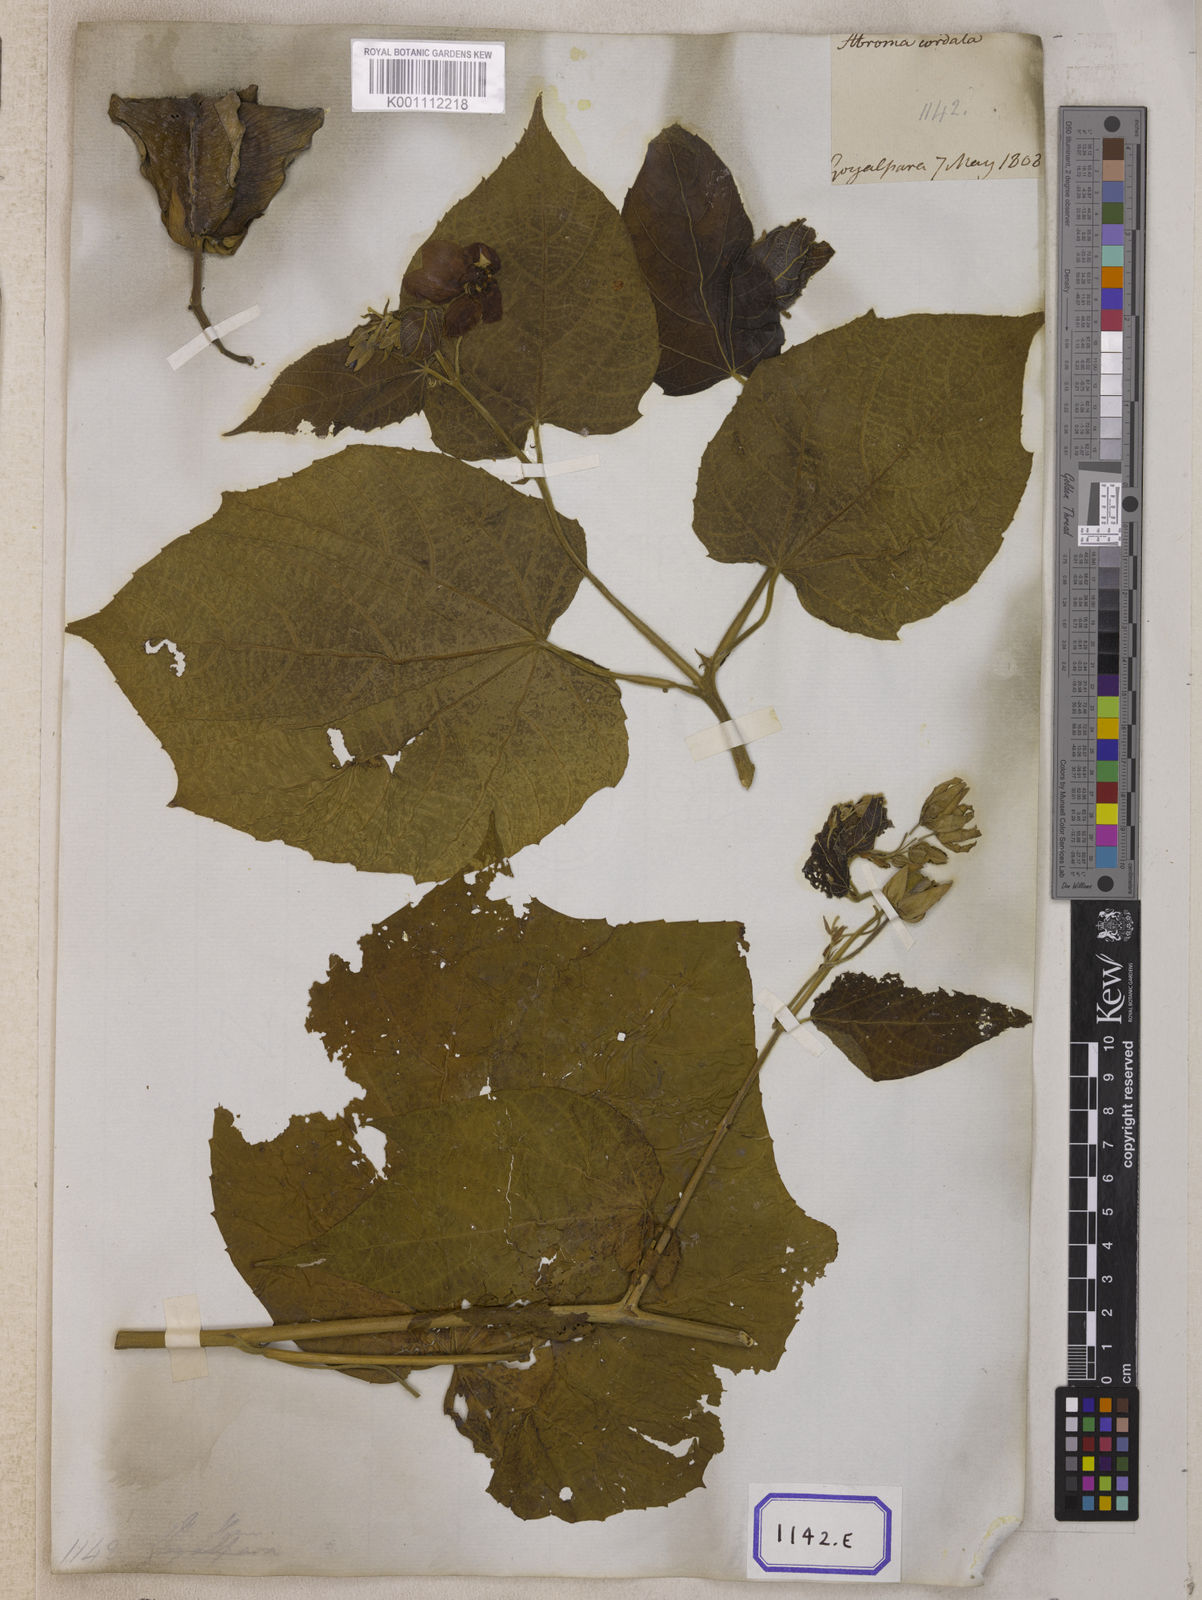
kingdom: Plantae
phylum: Tracheophyta
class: Magnoliopsida
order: Malvales
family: Malvaceae
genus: Abroma
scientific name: Abroma augustum
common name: Devil's-cotton
